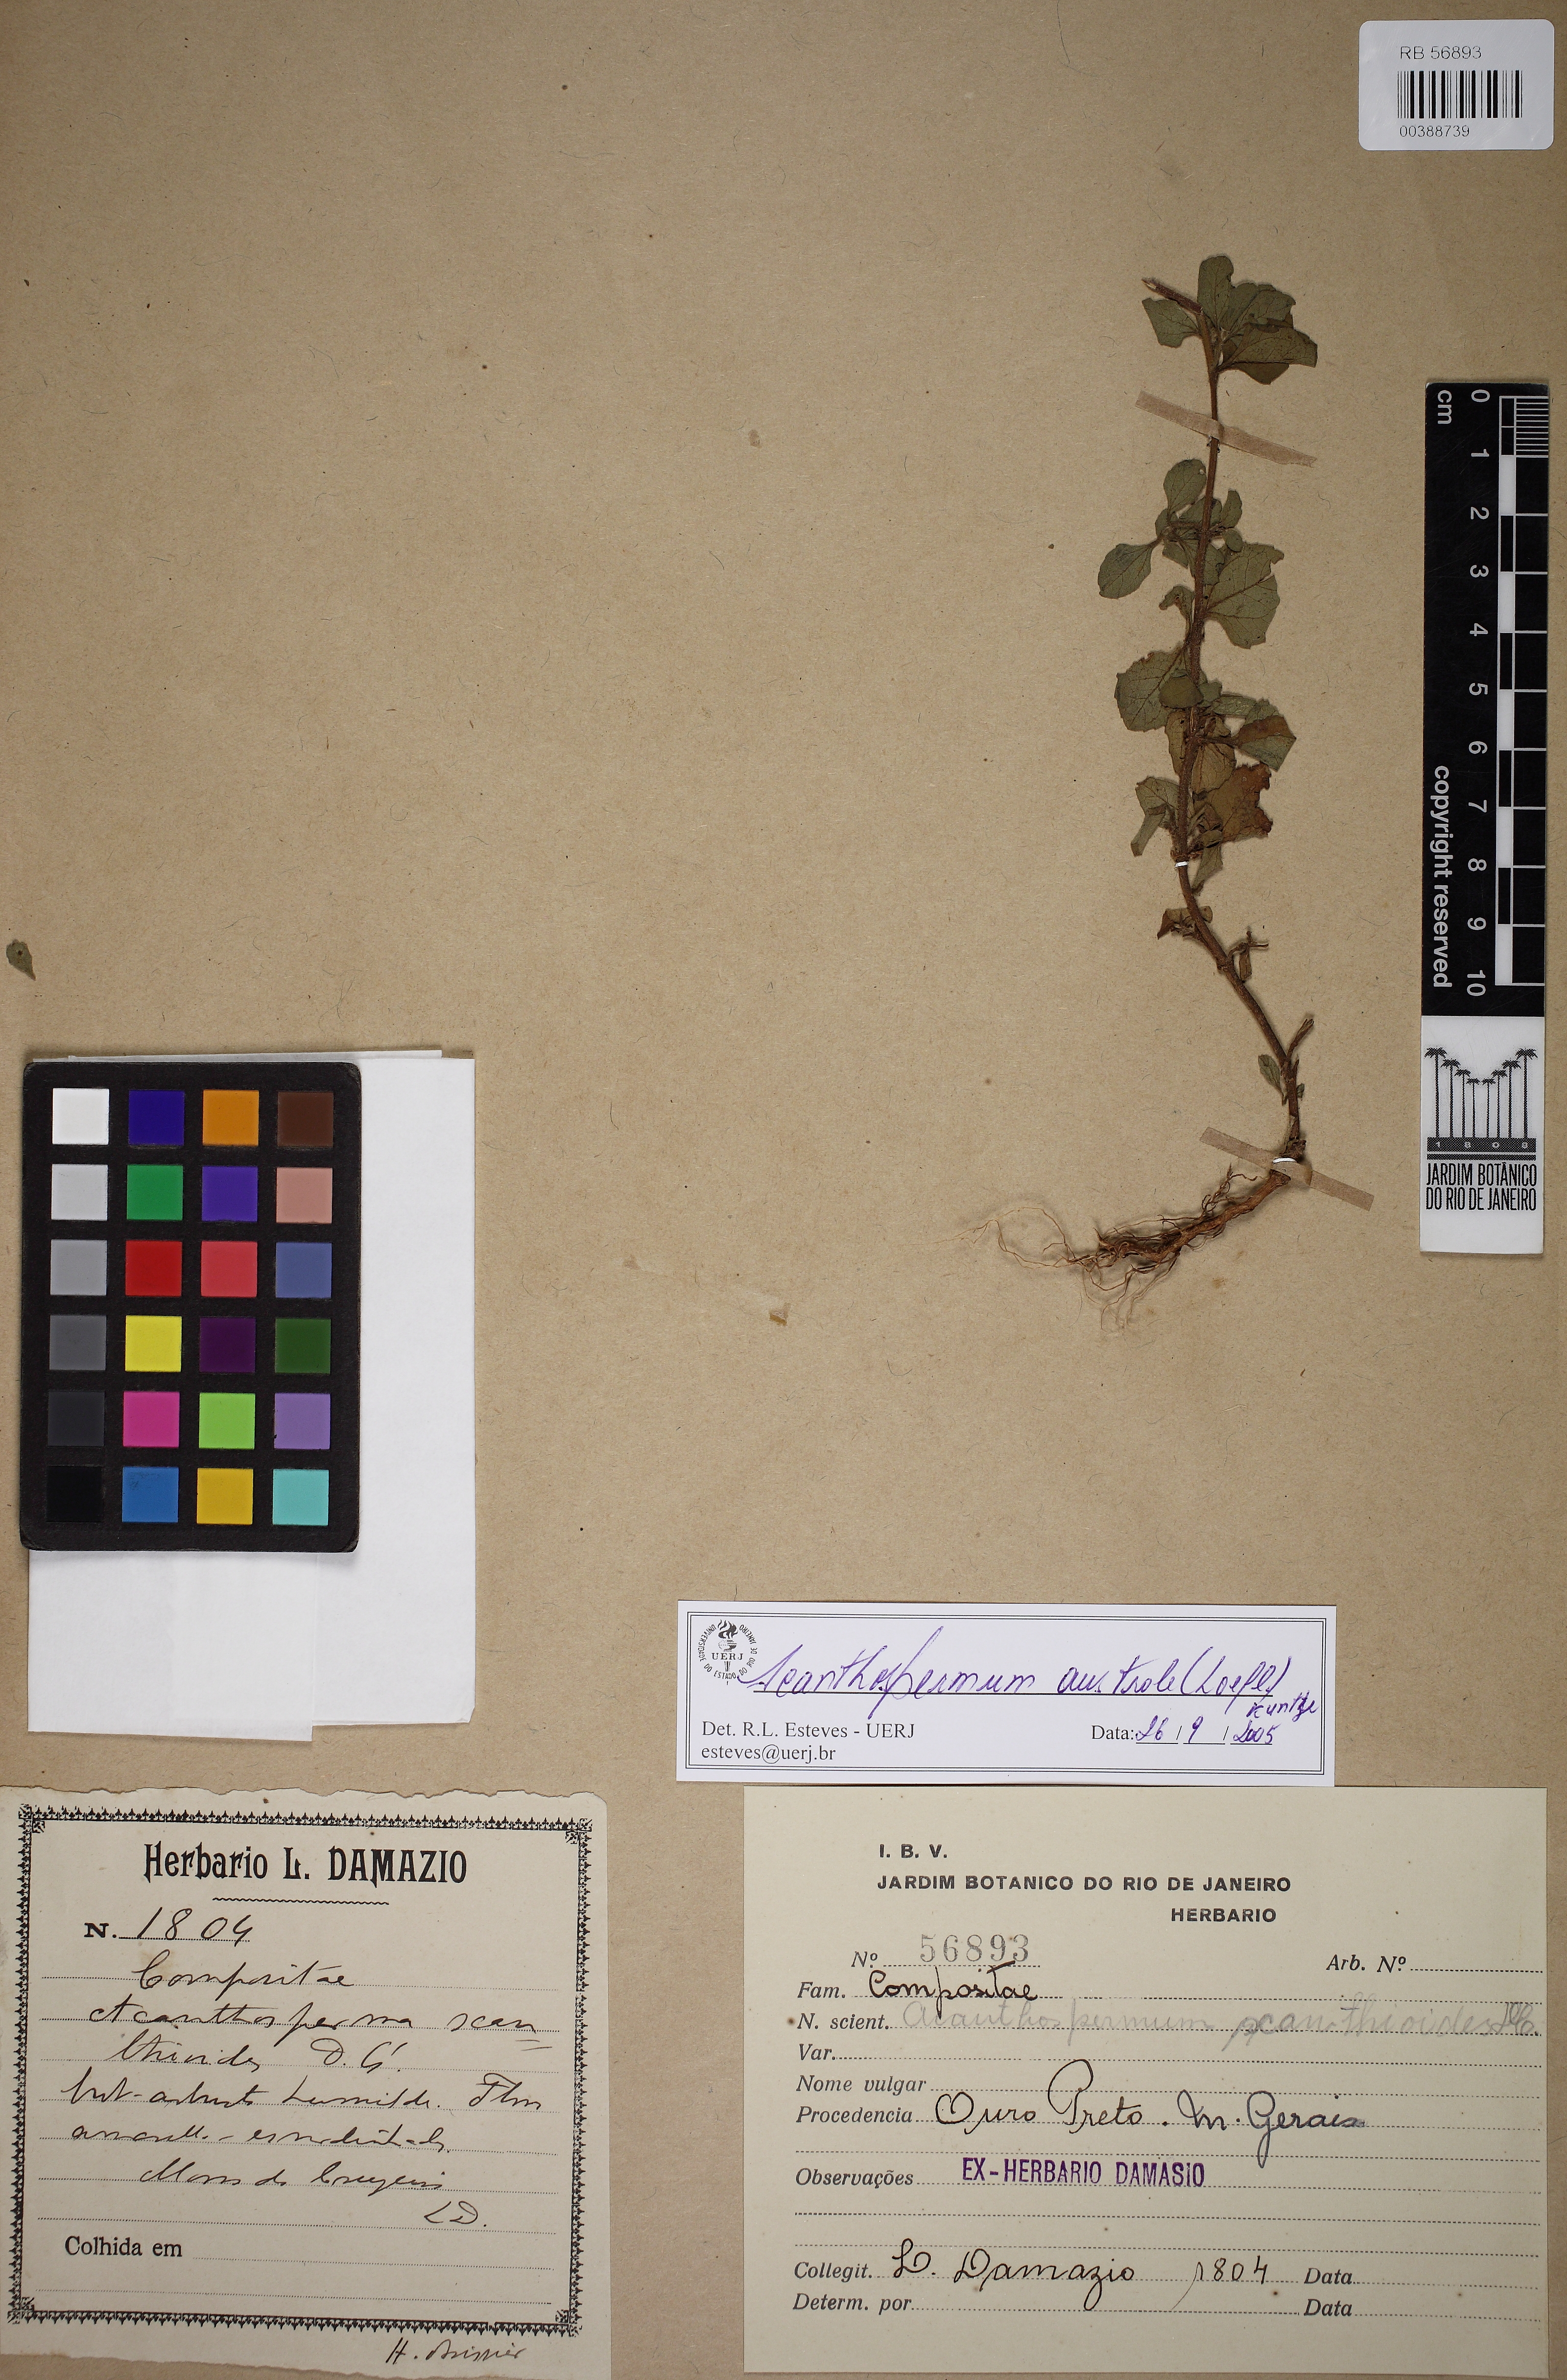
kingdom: Plantae
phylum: Tracheophyta
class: Magnoliopsida
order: Asterales
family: Asteraceae
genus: Acanthospermum
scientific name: Acanthospermum australe
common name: Paraguayan starbur
